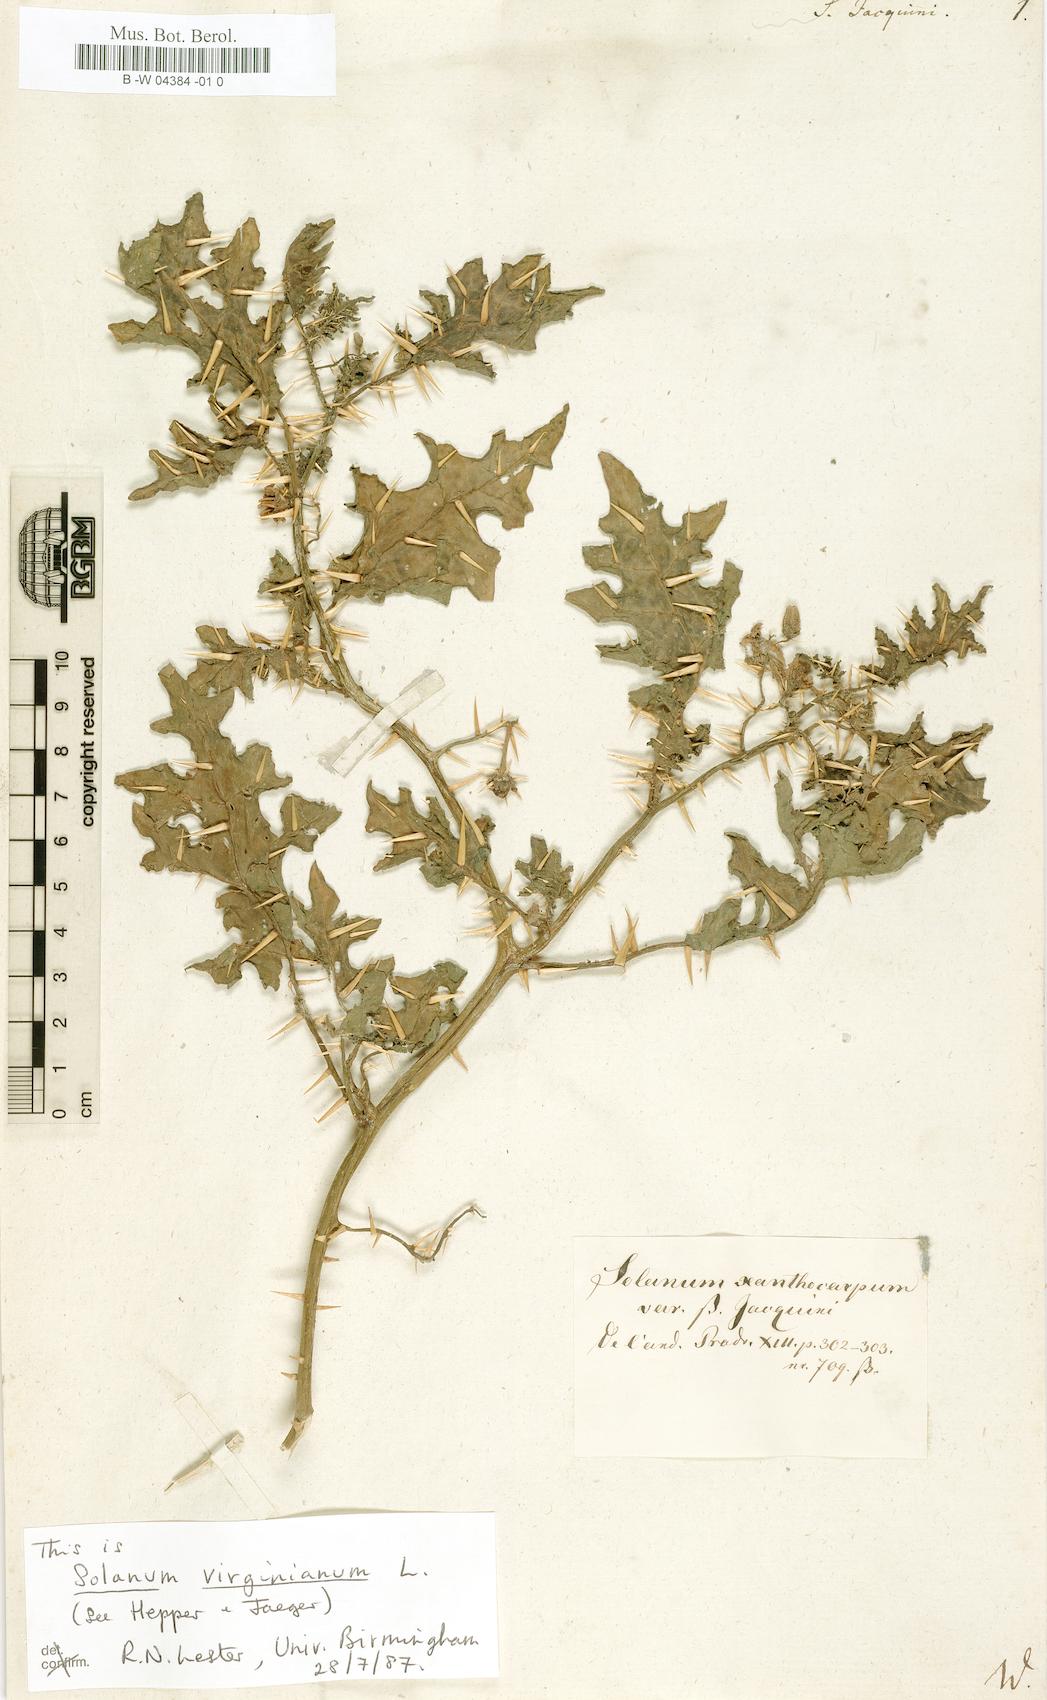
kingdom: Plantae
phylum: Tracheophyta
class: Magnoliopsida
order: Solanales
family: Solanaceae
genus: Solanum
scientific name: Solanum virginianum
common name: Surattense nightshade
